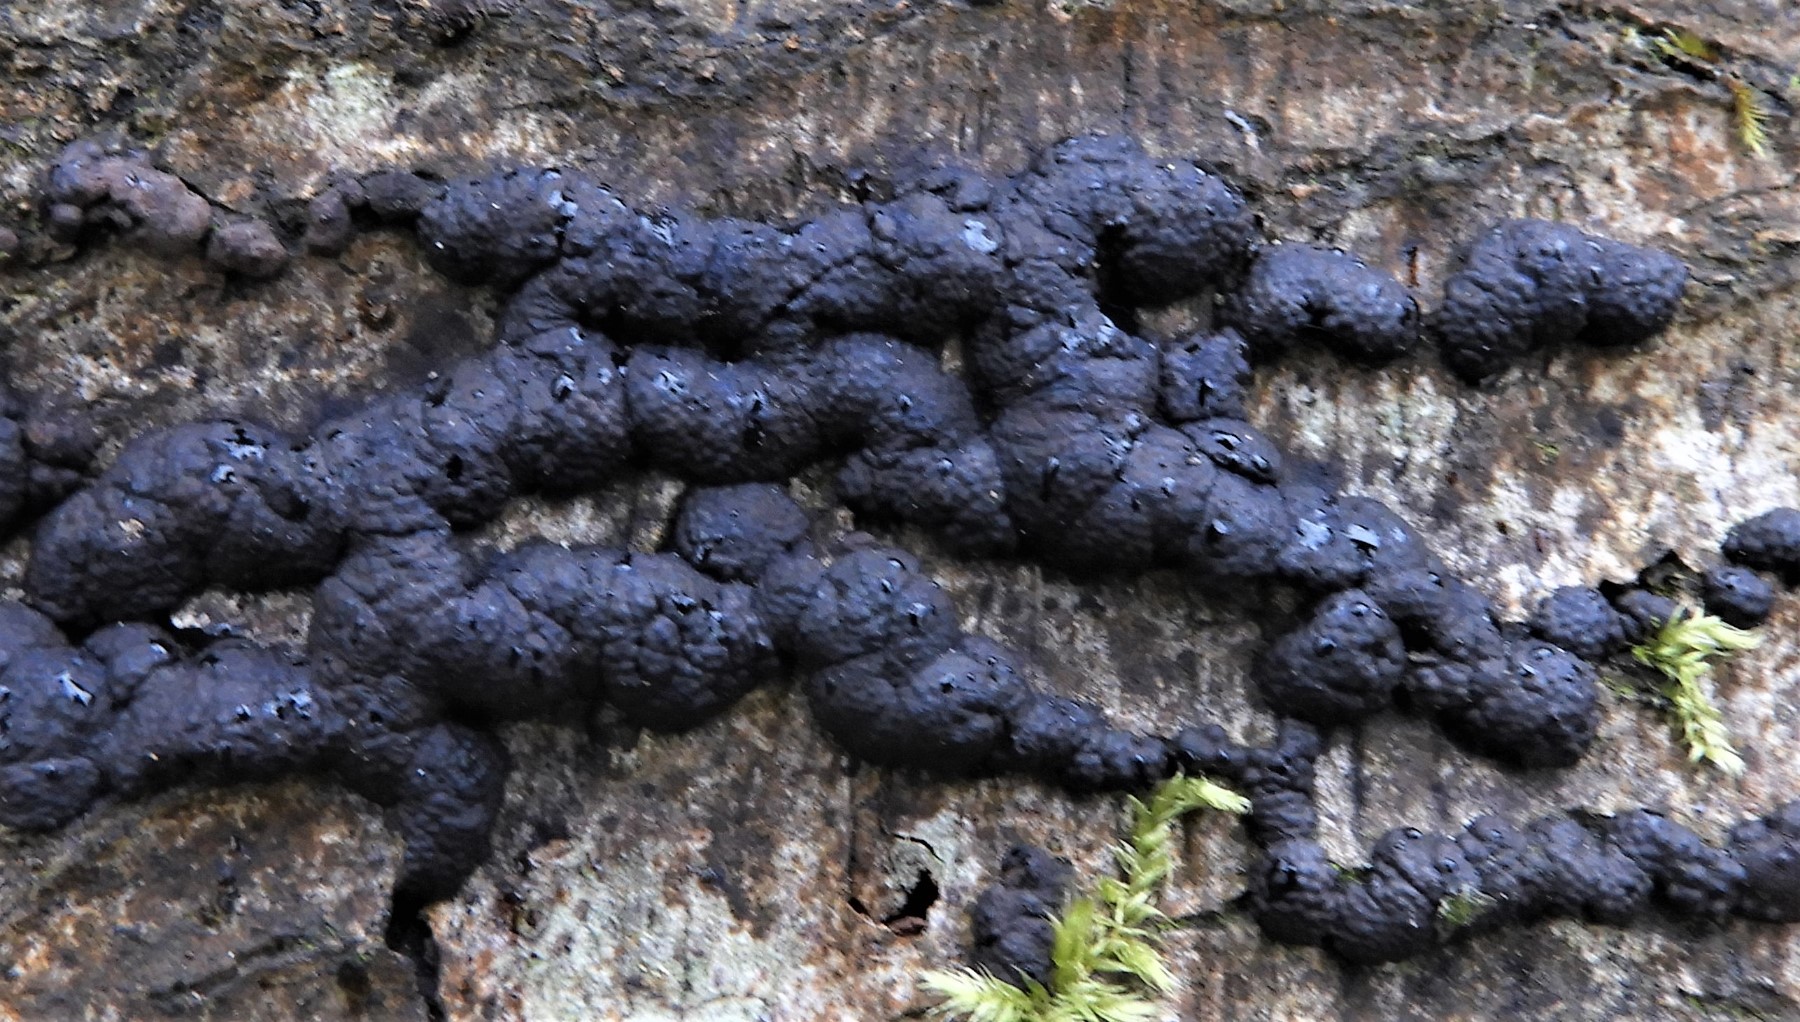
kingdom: Fungi
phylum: Ascomycota
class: Sordariomycetes
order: Xylariales
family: Hypoxylaceae
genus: Jackrogersella
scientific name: Jackrogersella cohaerens
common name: sammenflydende kulbær
